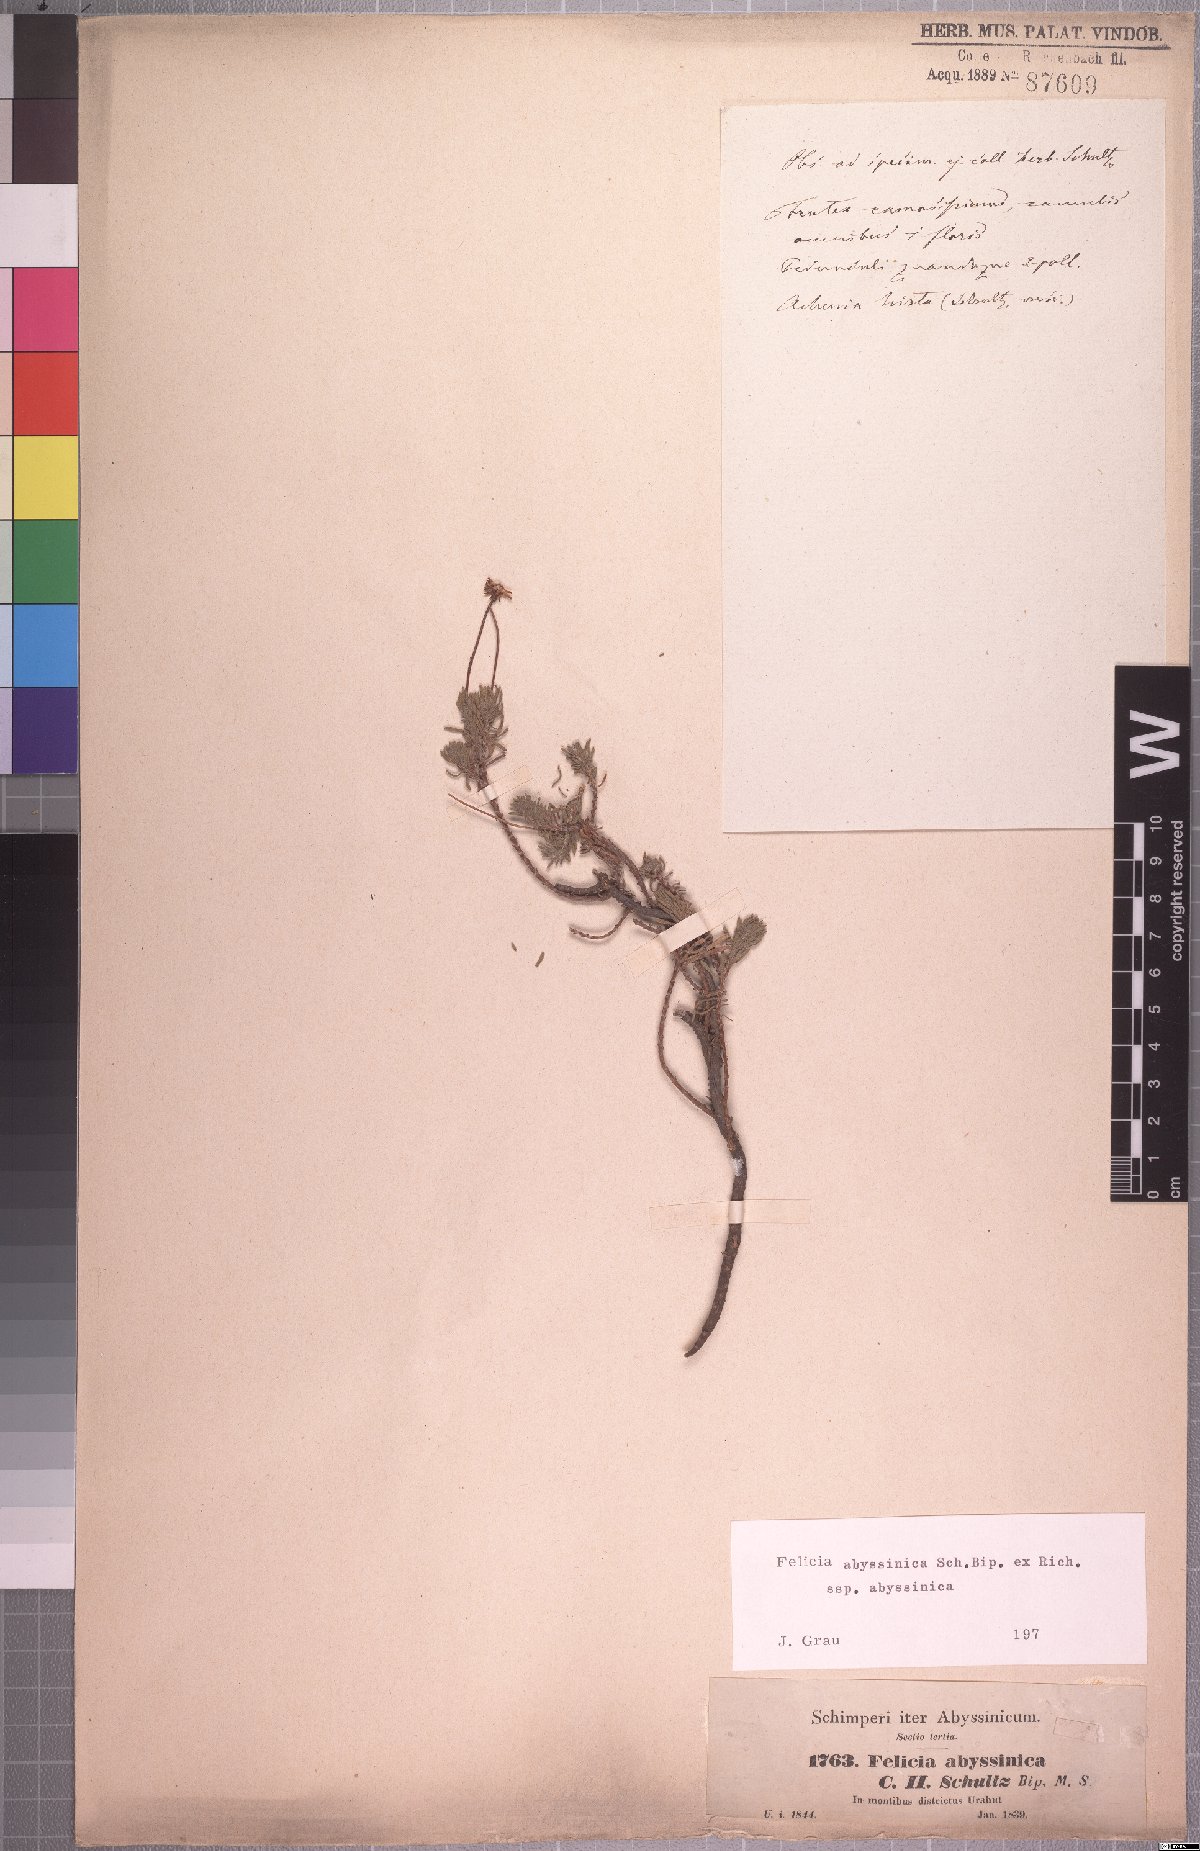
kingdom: Plantae
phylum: Tracheophyta
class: Magnoliopsida
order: Asterales
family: Asteraceae
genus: Felicia
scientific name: Felicia abyssinica
